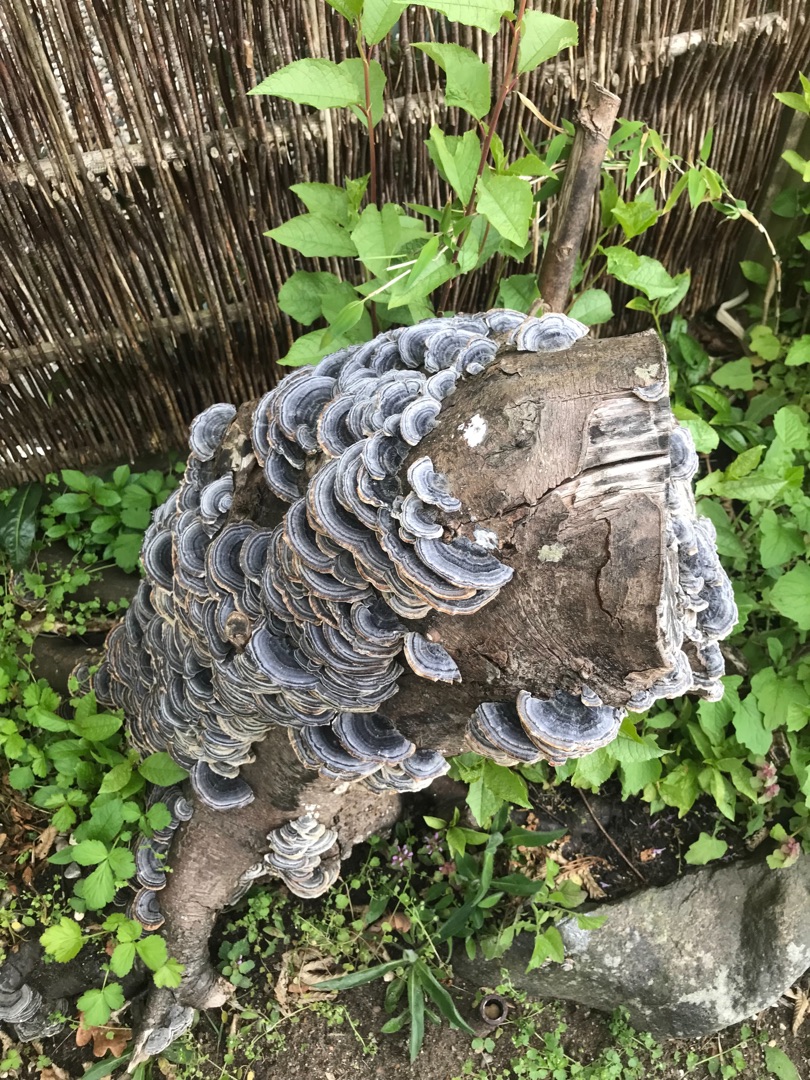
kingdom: Fungi
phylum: Basidiomycota
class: Agaricomycetes
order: Polyporales
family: Polyporaceae
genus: Trametes
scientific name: Trametes versicolor
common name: Broget læderporesvamp
